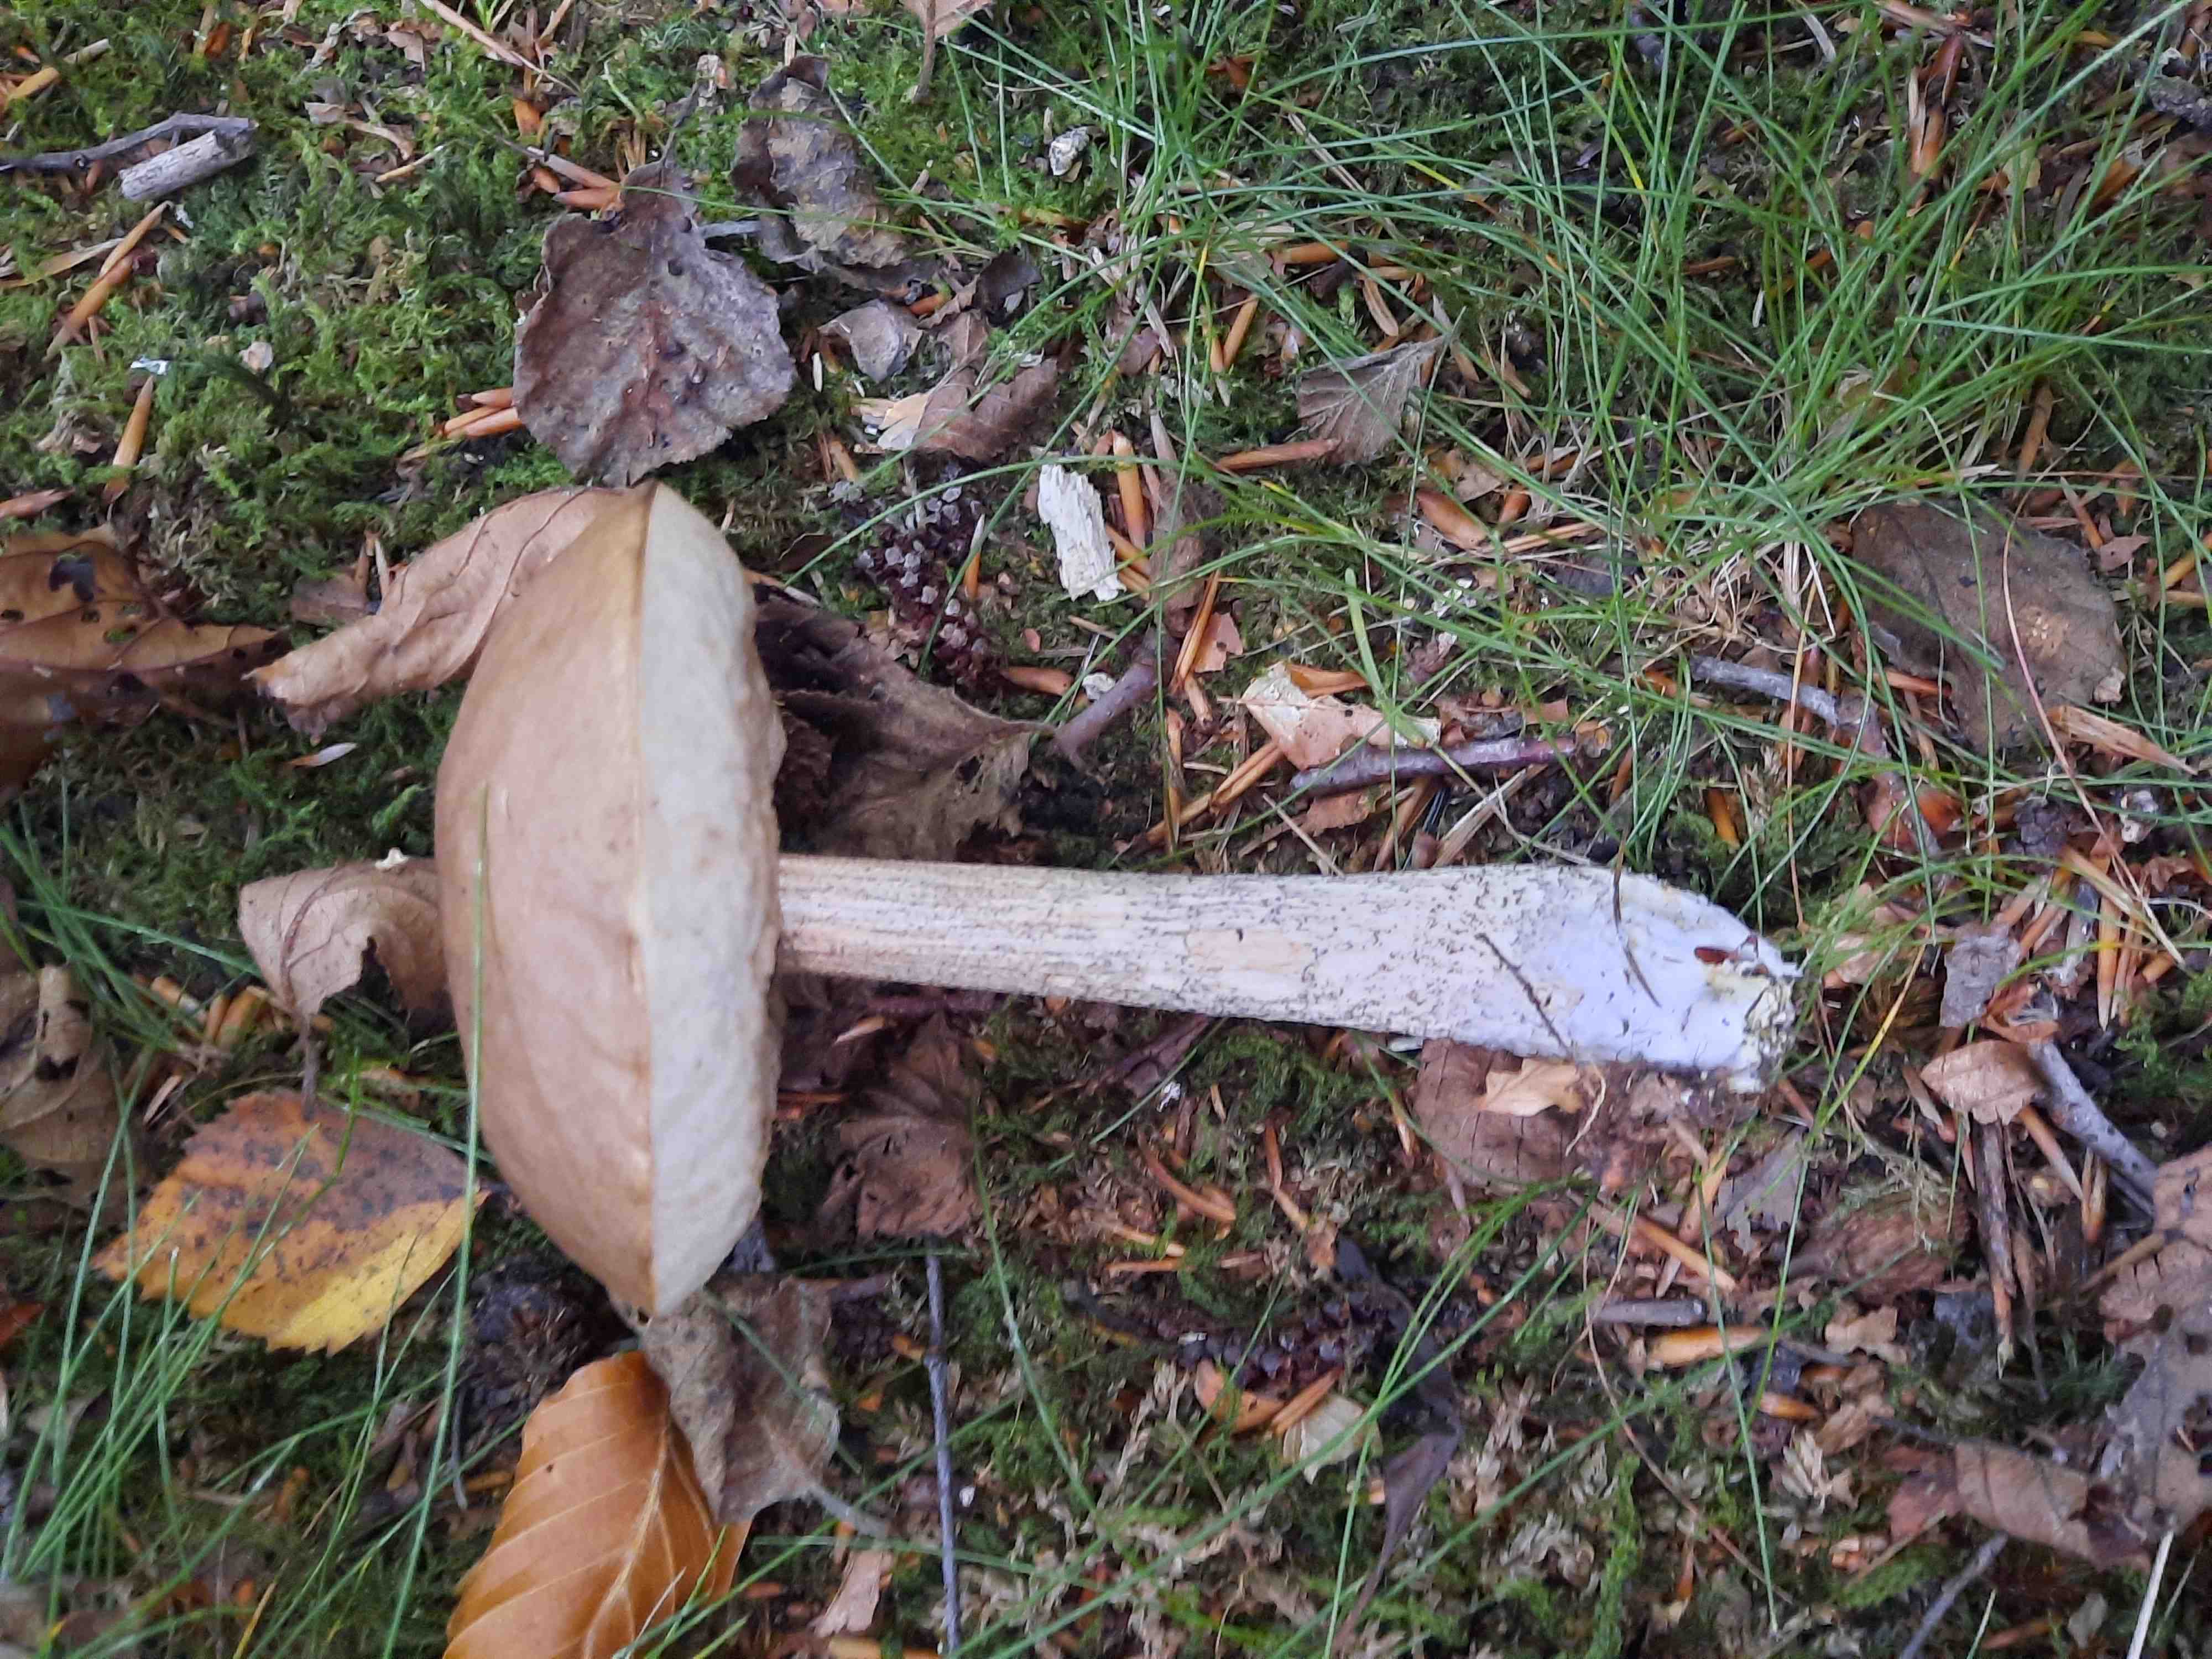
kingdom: Fungi
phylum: Basidiomycota
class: Agaricomycetes
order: Boletales
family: Boletaceae
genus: Leccinum
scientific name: Leccinum
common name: skælrørhat
